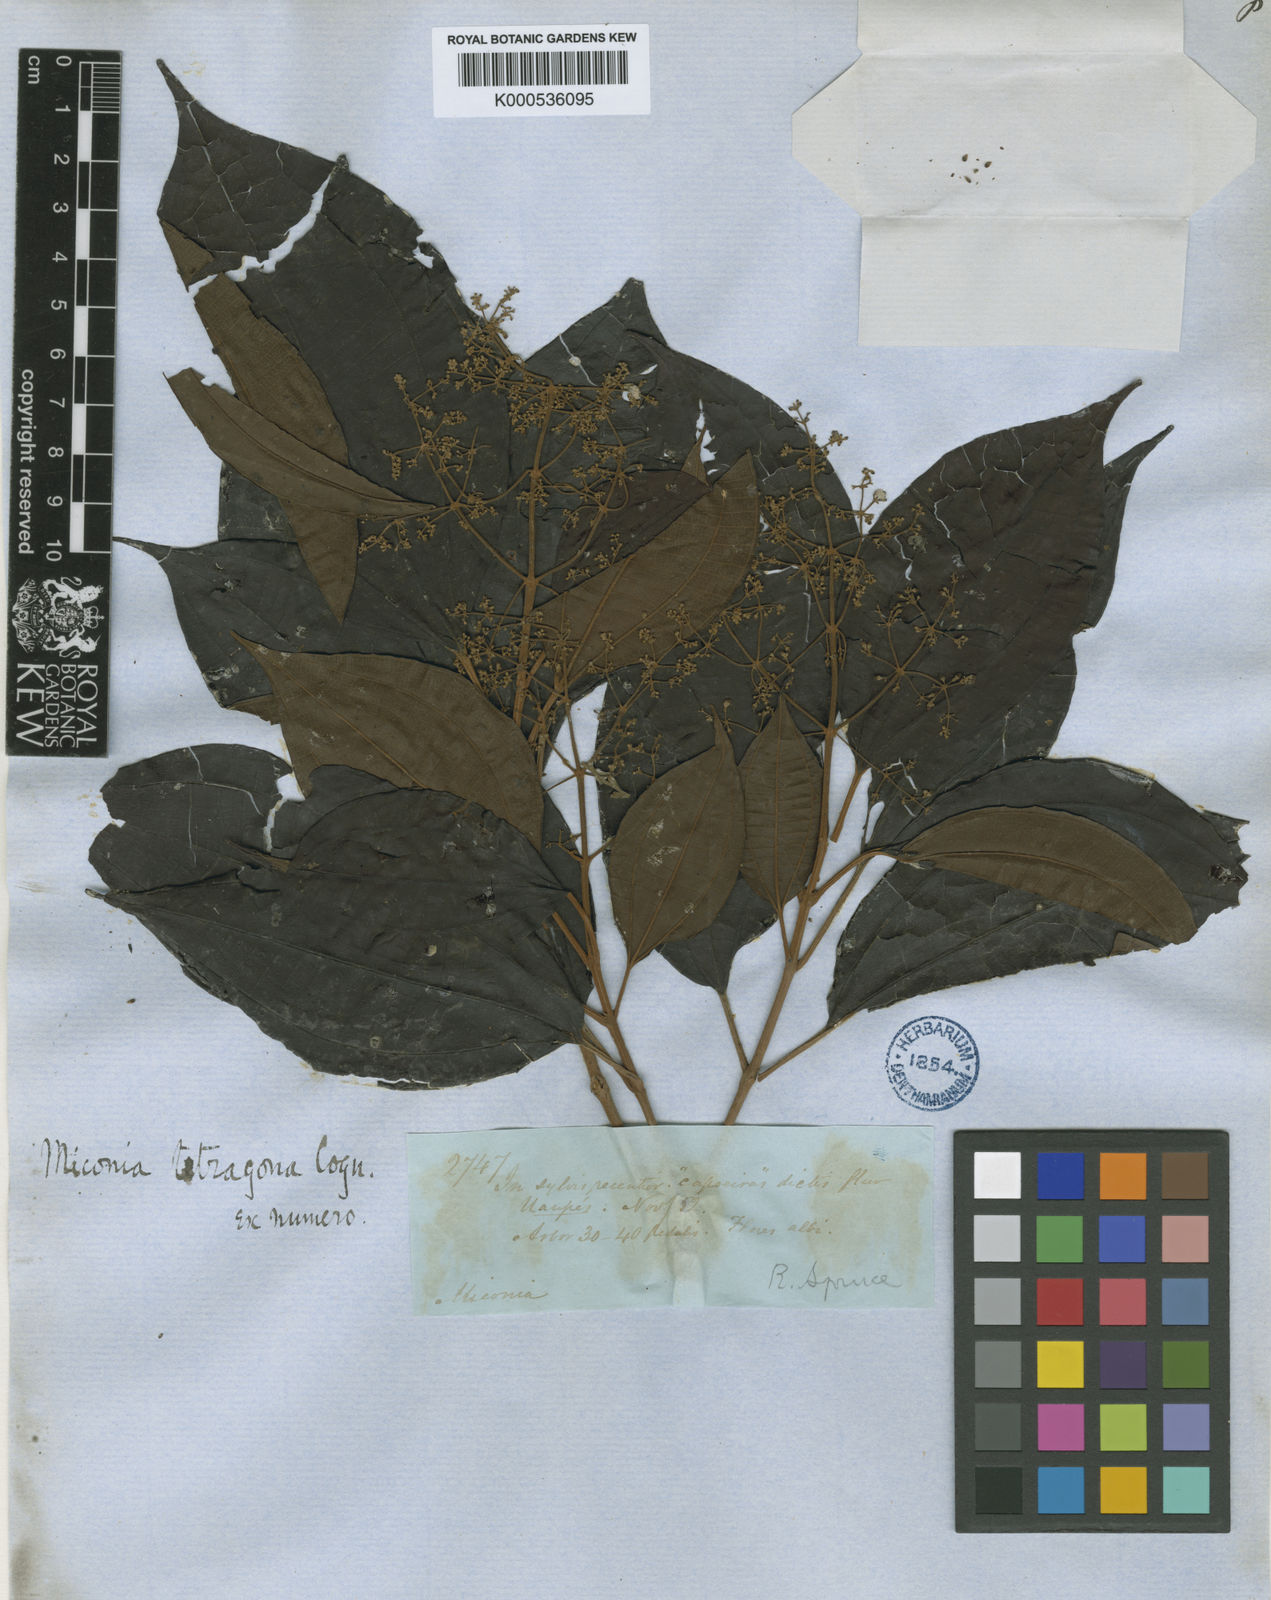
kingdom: Plantae
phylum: Tracheophyta
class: Magnoliopsida
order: Myrtales
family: Melastomataceae
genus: Miconia
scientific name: Miconia tetragona
